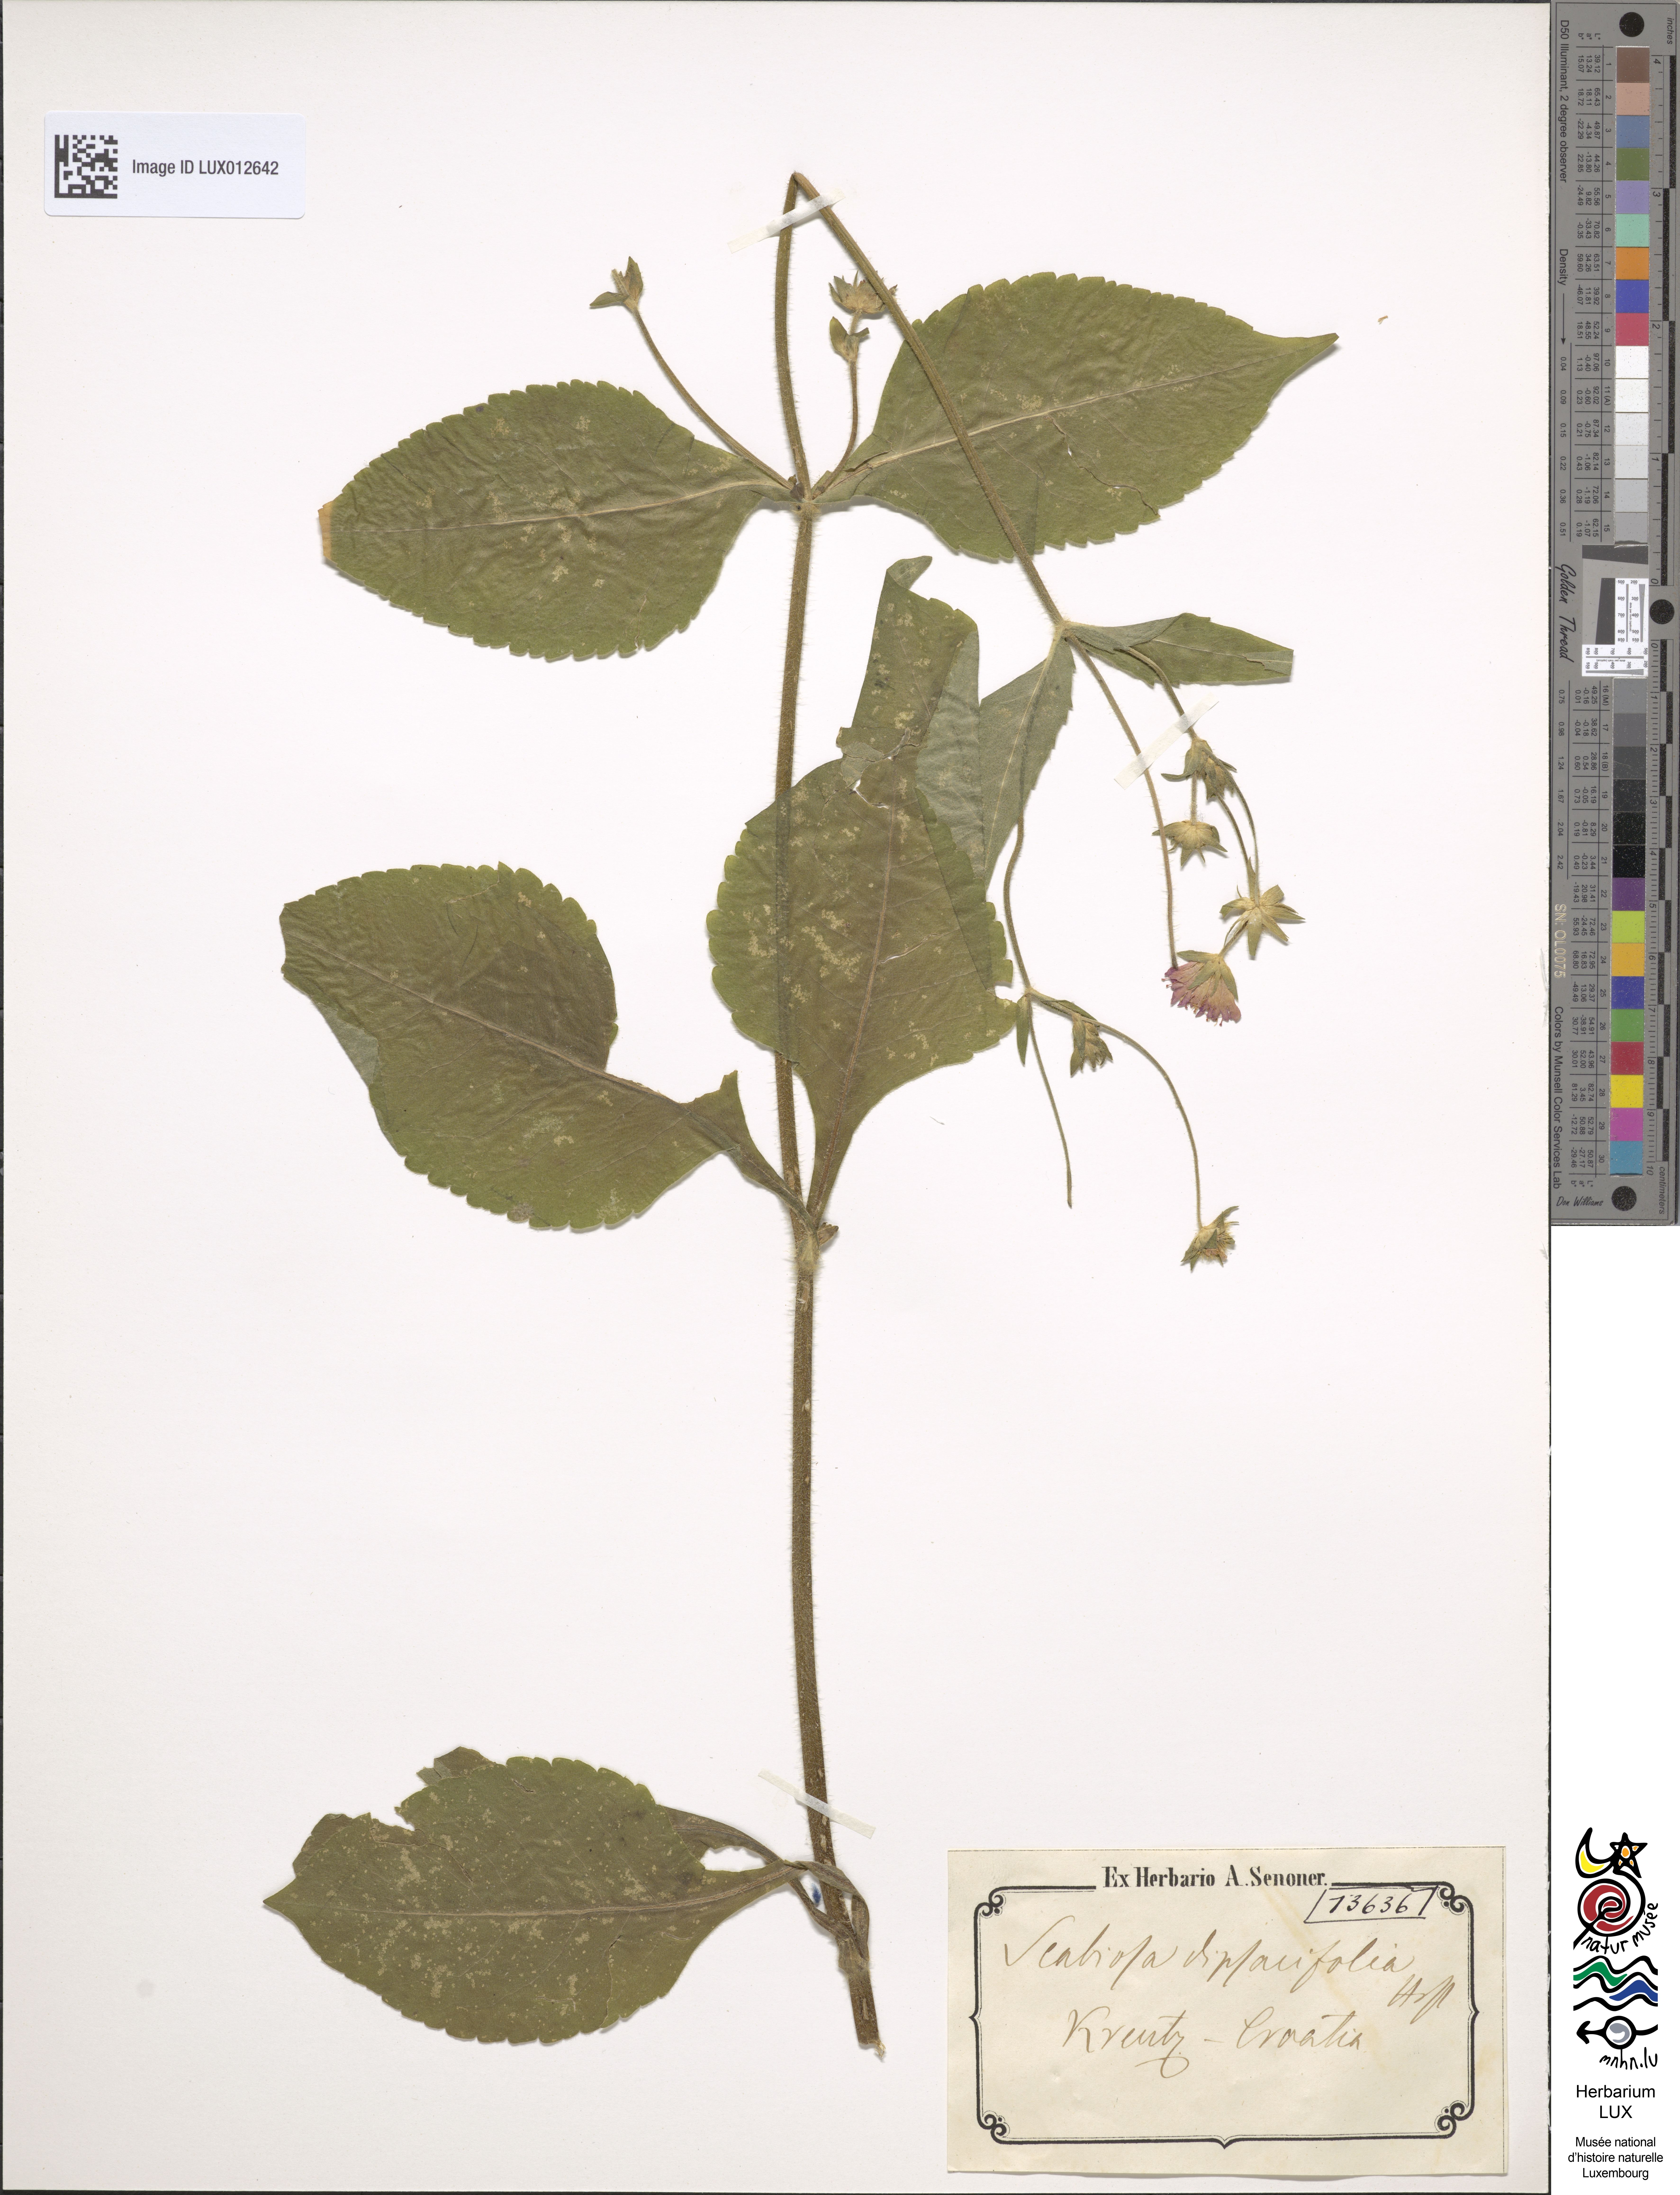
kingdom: Plantae
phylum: Tracheophyta
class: Magnoliopsida
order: Dipsacales
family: Caprifoliaceae
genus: Knautia
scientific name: Knautia dipsacifolia
